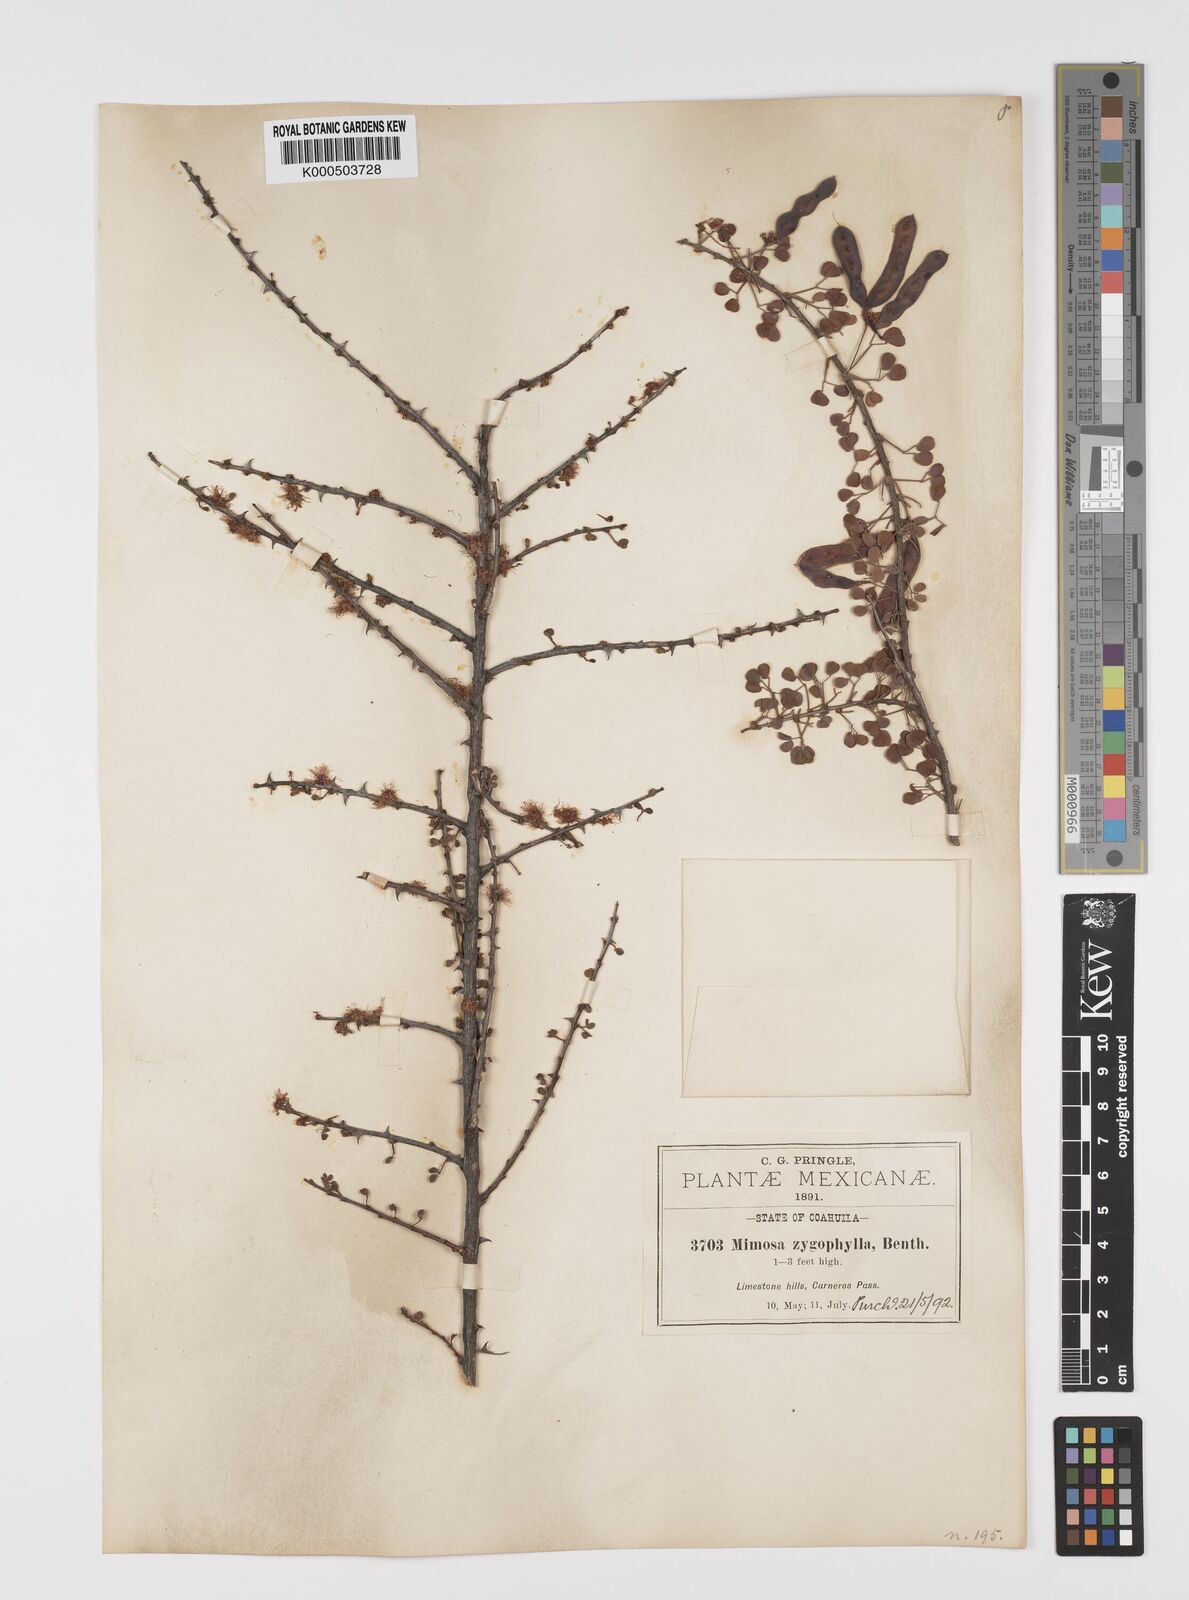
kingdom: Plantae
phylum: Tracheophyta
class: Magnoliopsida
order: Fabales
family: Fabaceae
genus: Mimosa
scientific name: Mimosa zygophylla
